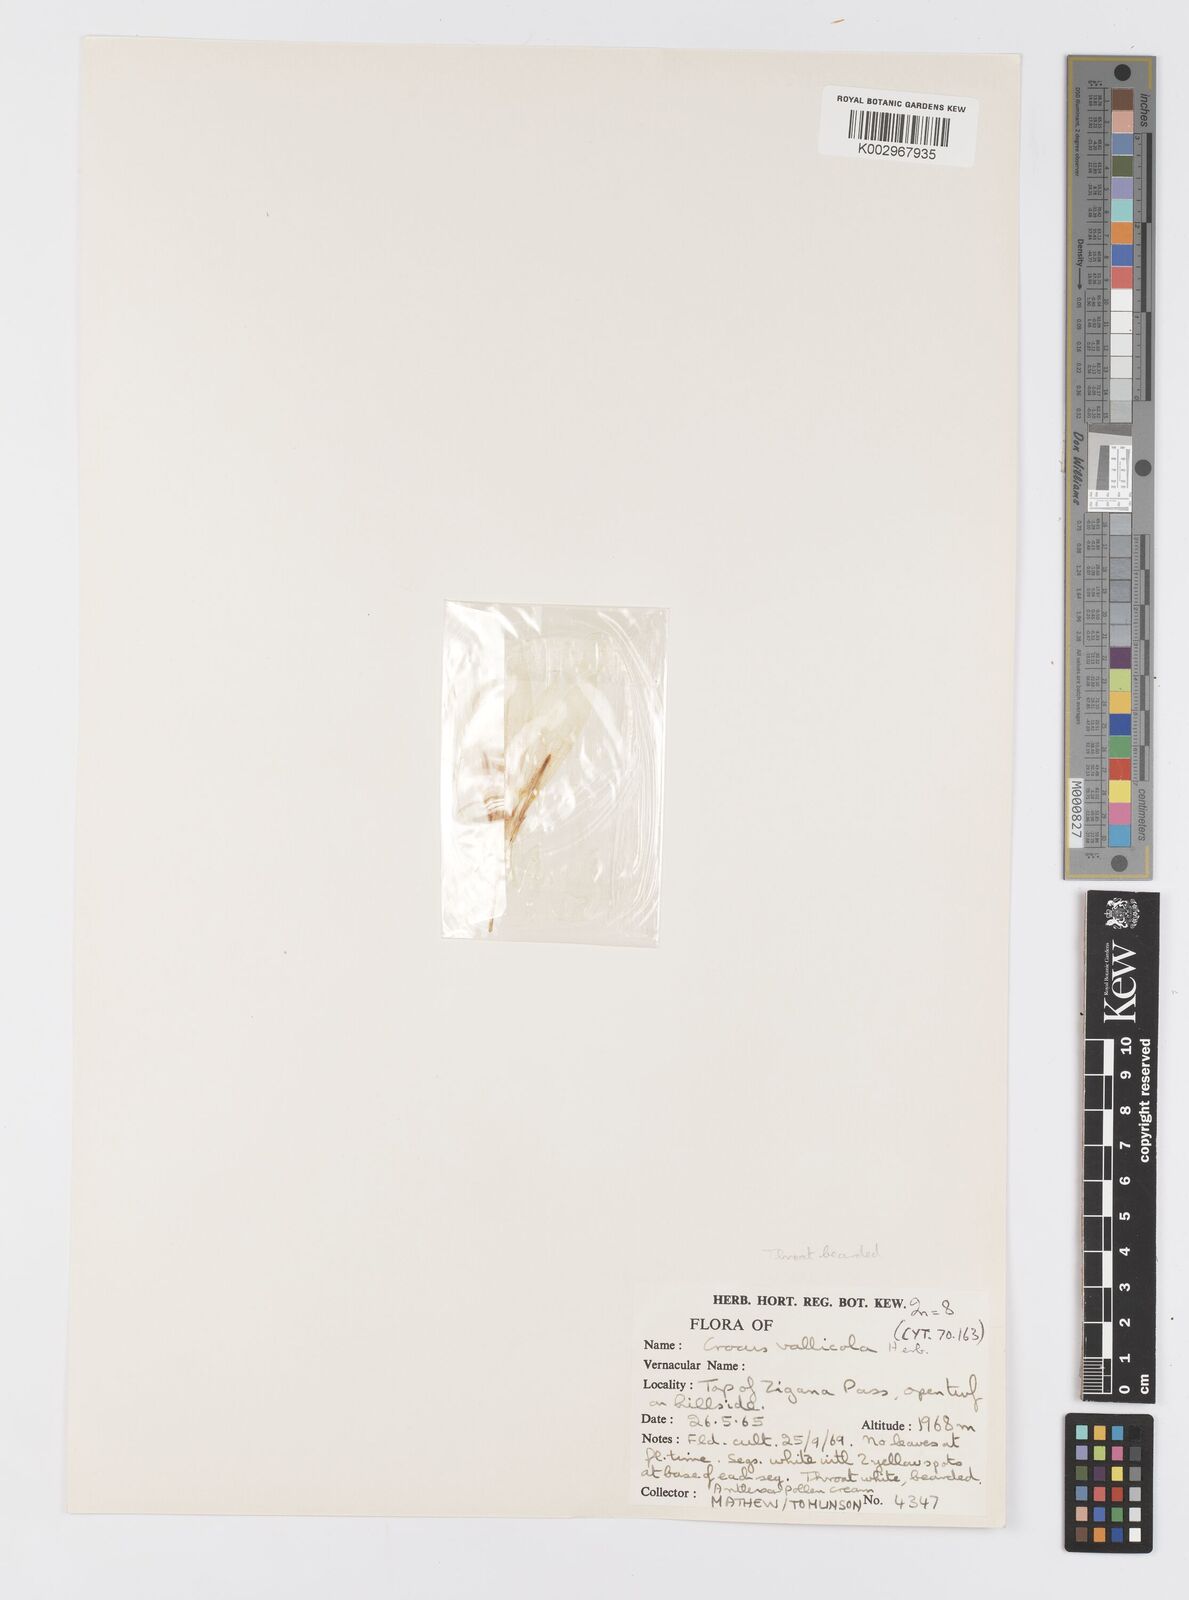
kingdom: Plantae
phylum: Tracheophyta
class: Liliopsida
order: Asparagales
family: Iridaceae
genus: Crocus
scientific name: Crocus vallicola
